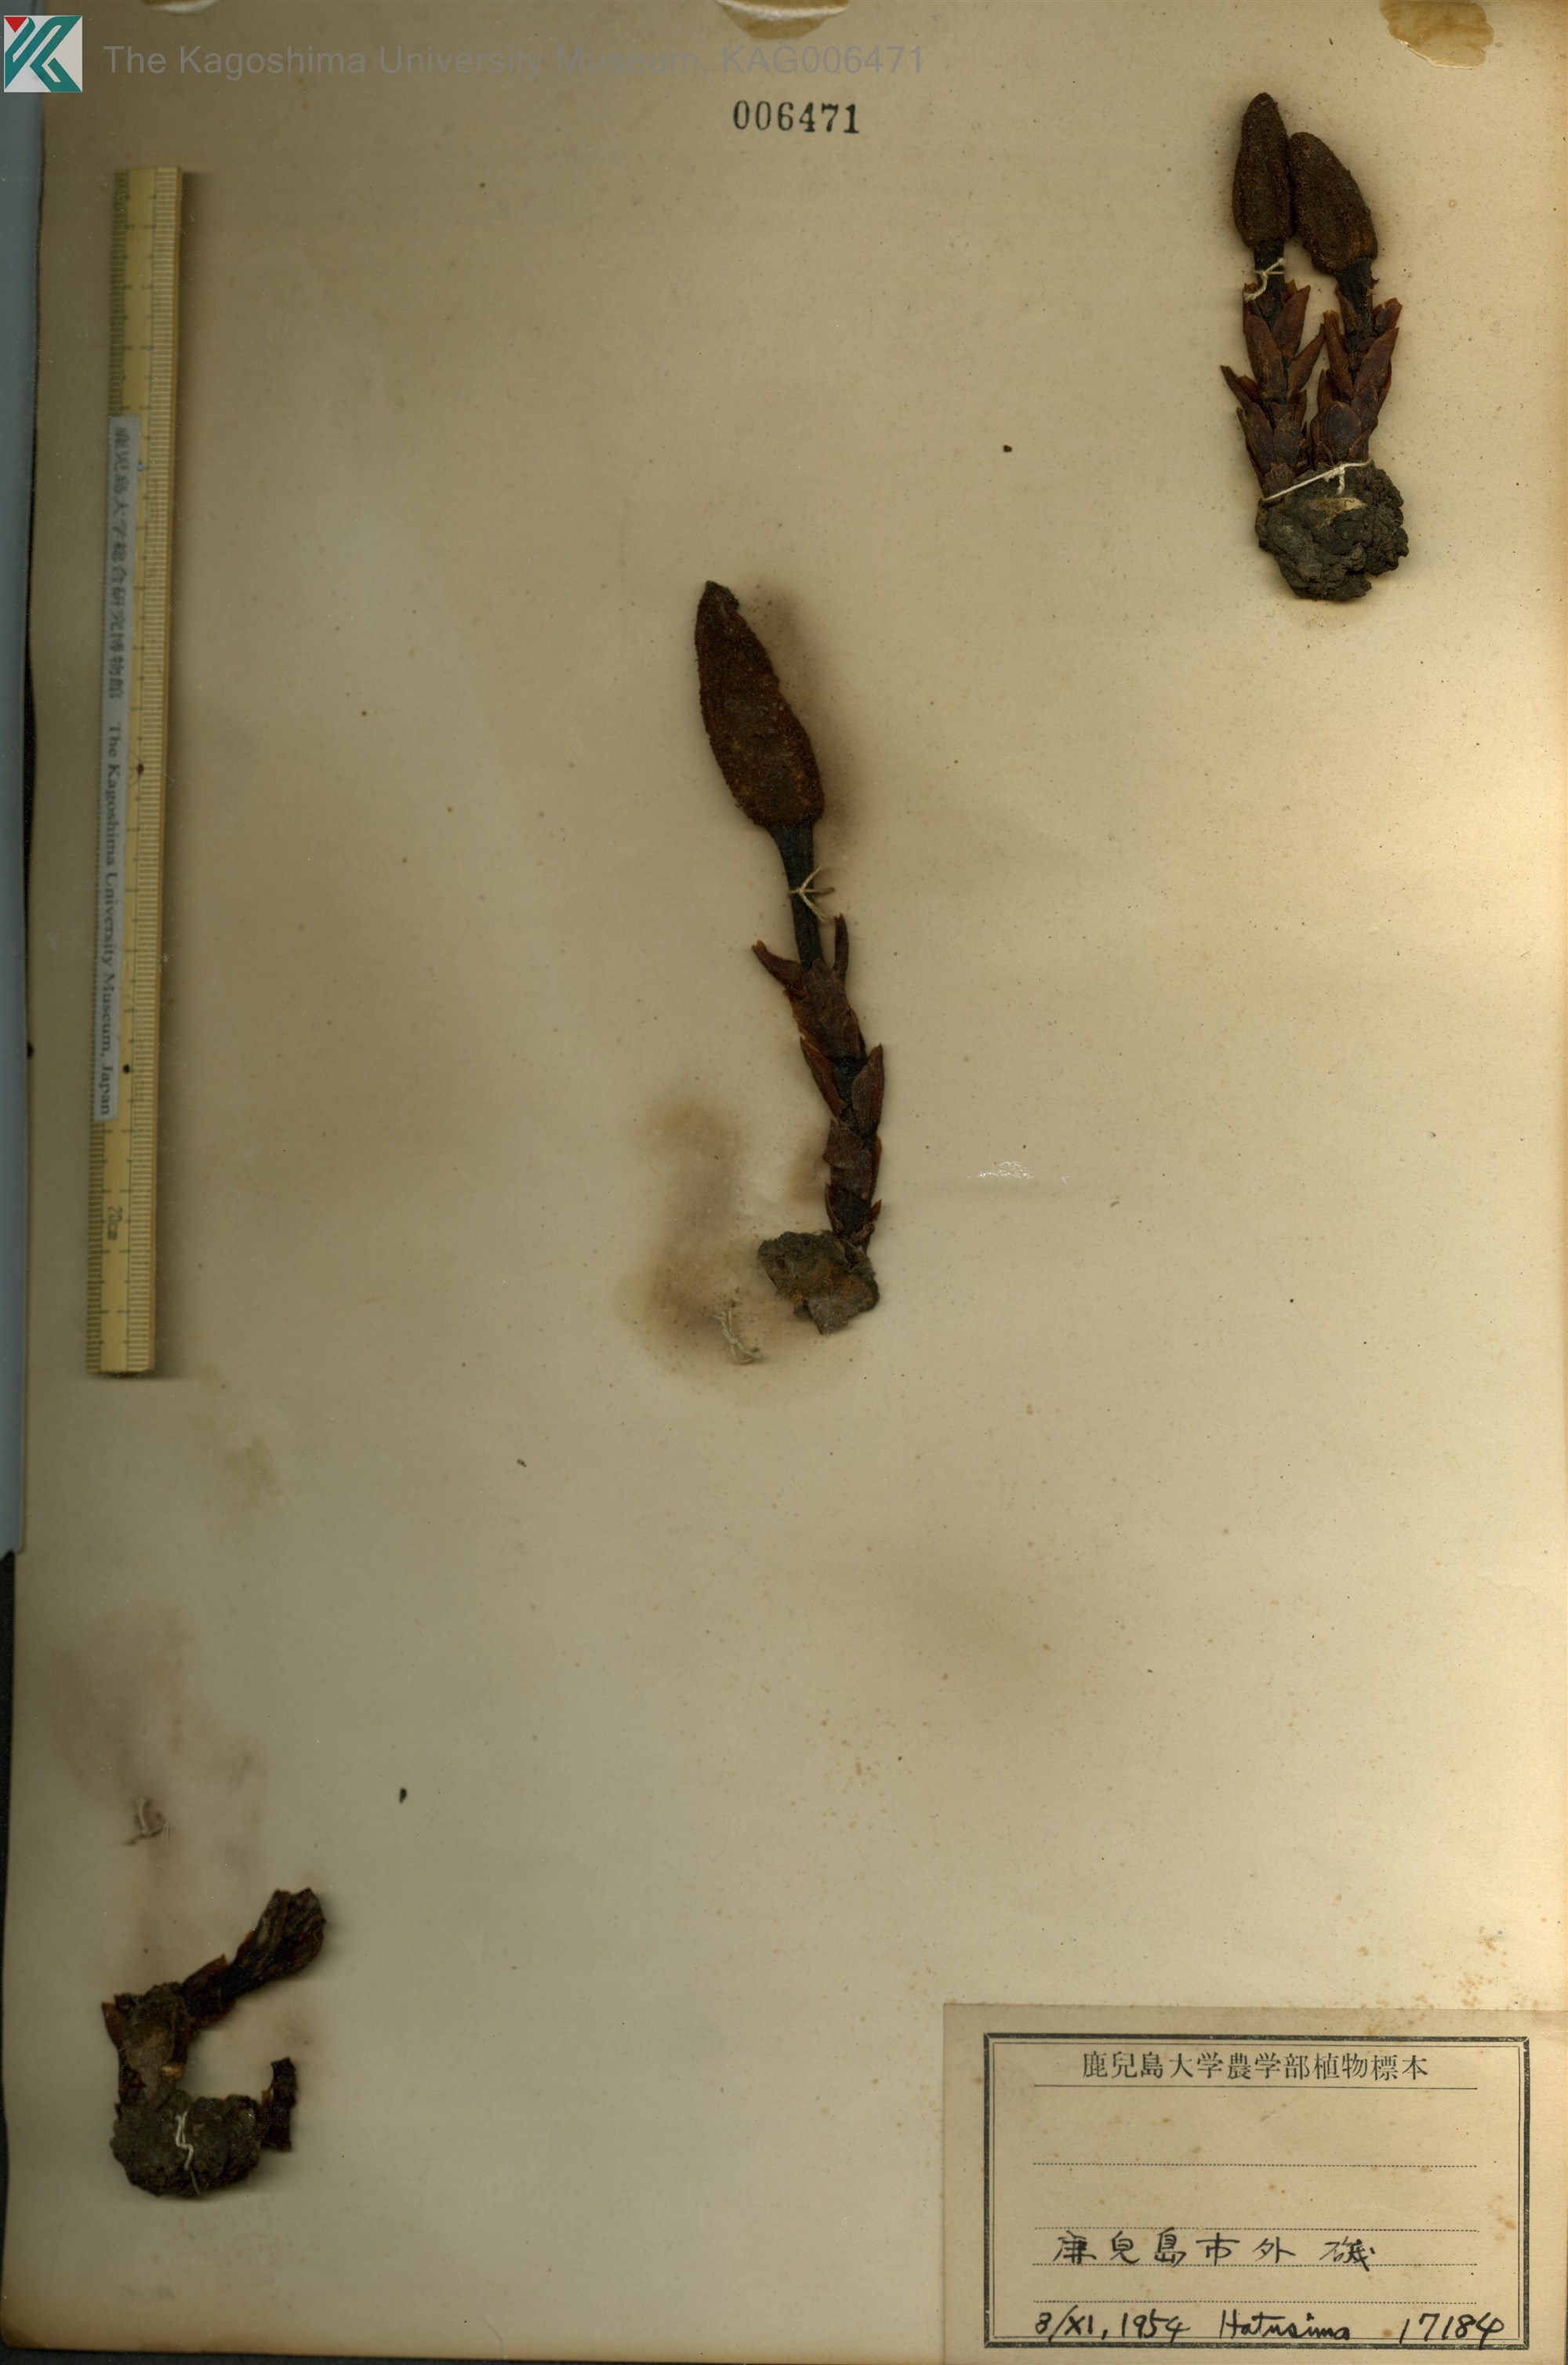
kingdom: Plantae
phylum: Tracheophyta
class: Magnoliopsida
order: Santalales
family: Balanophoraceae
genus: Balanophora
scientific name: Balanophora tobiracola
